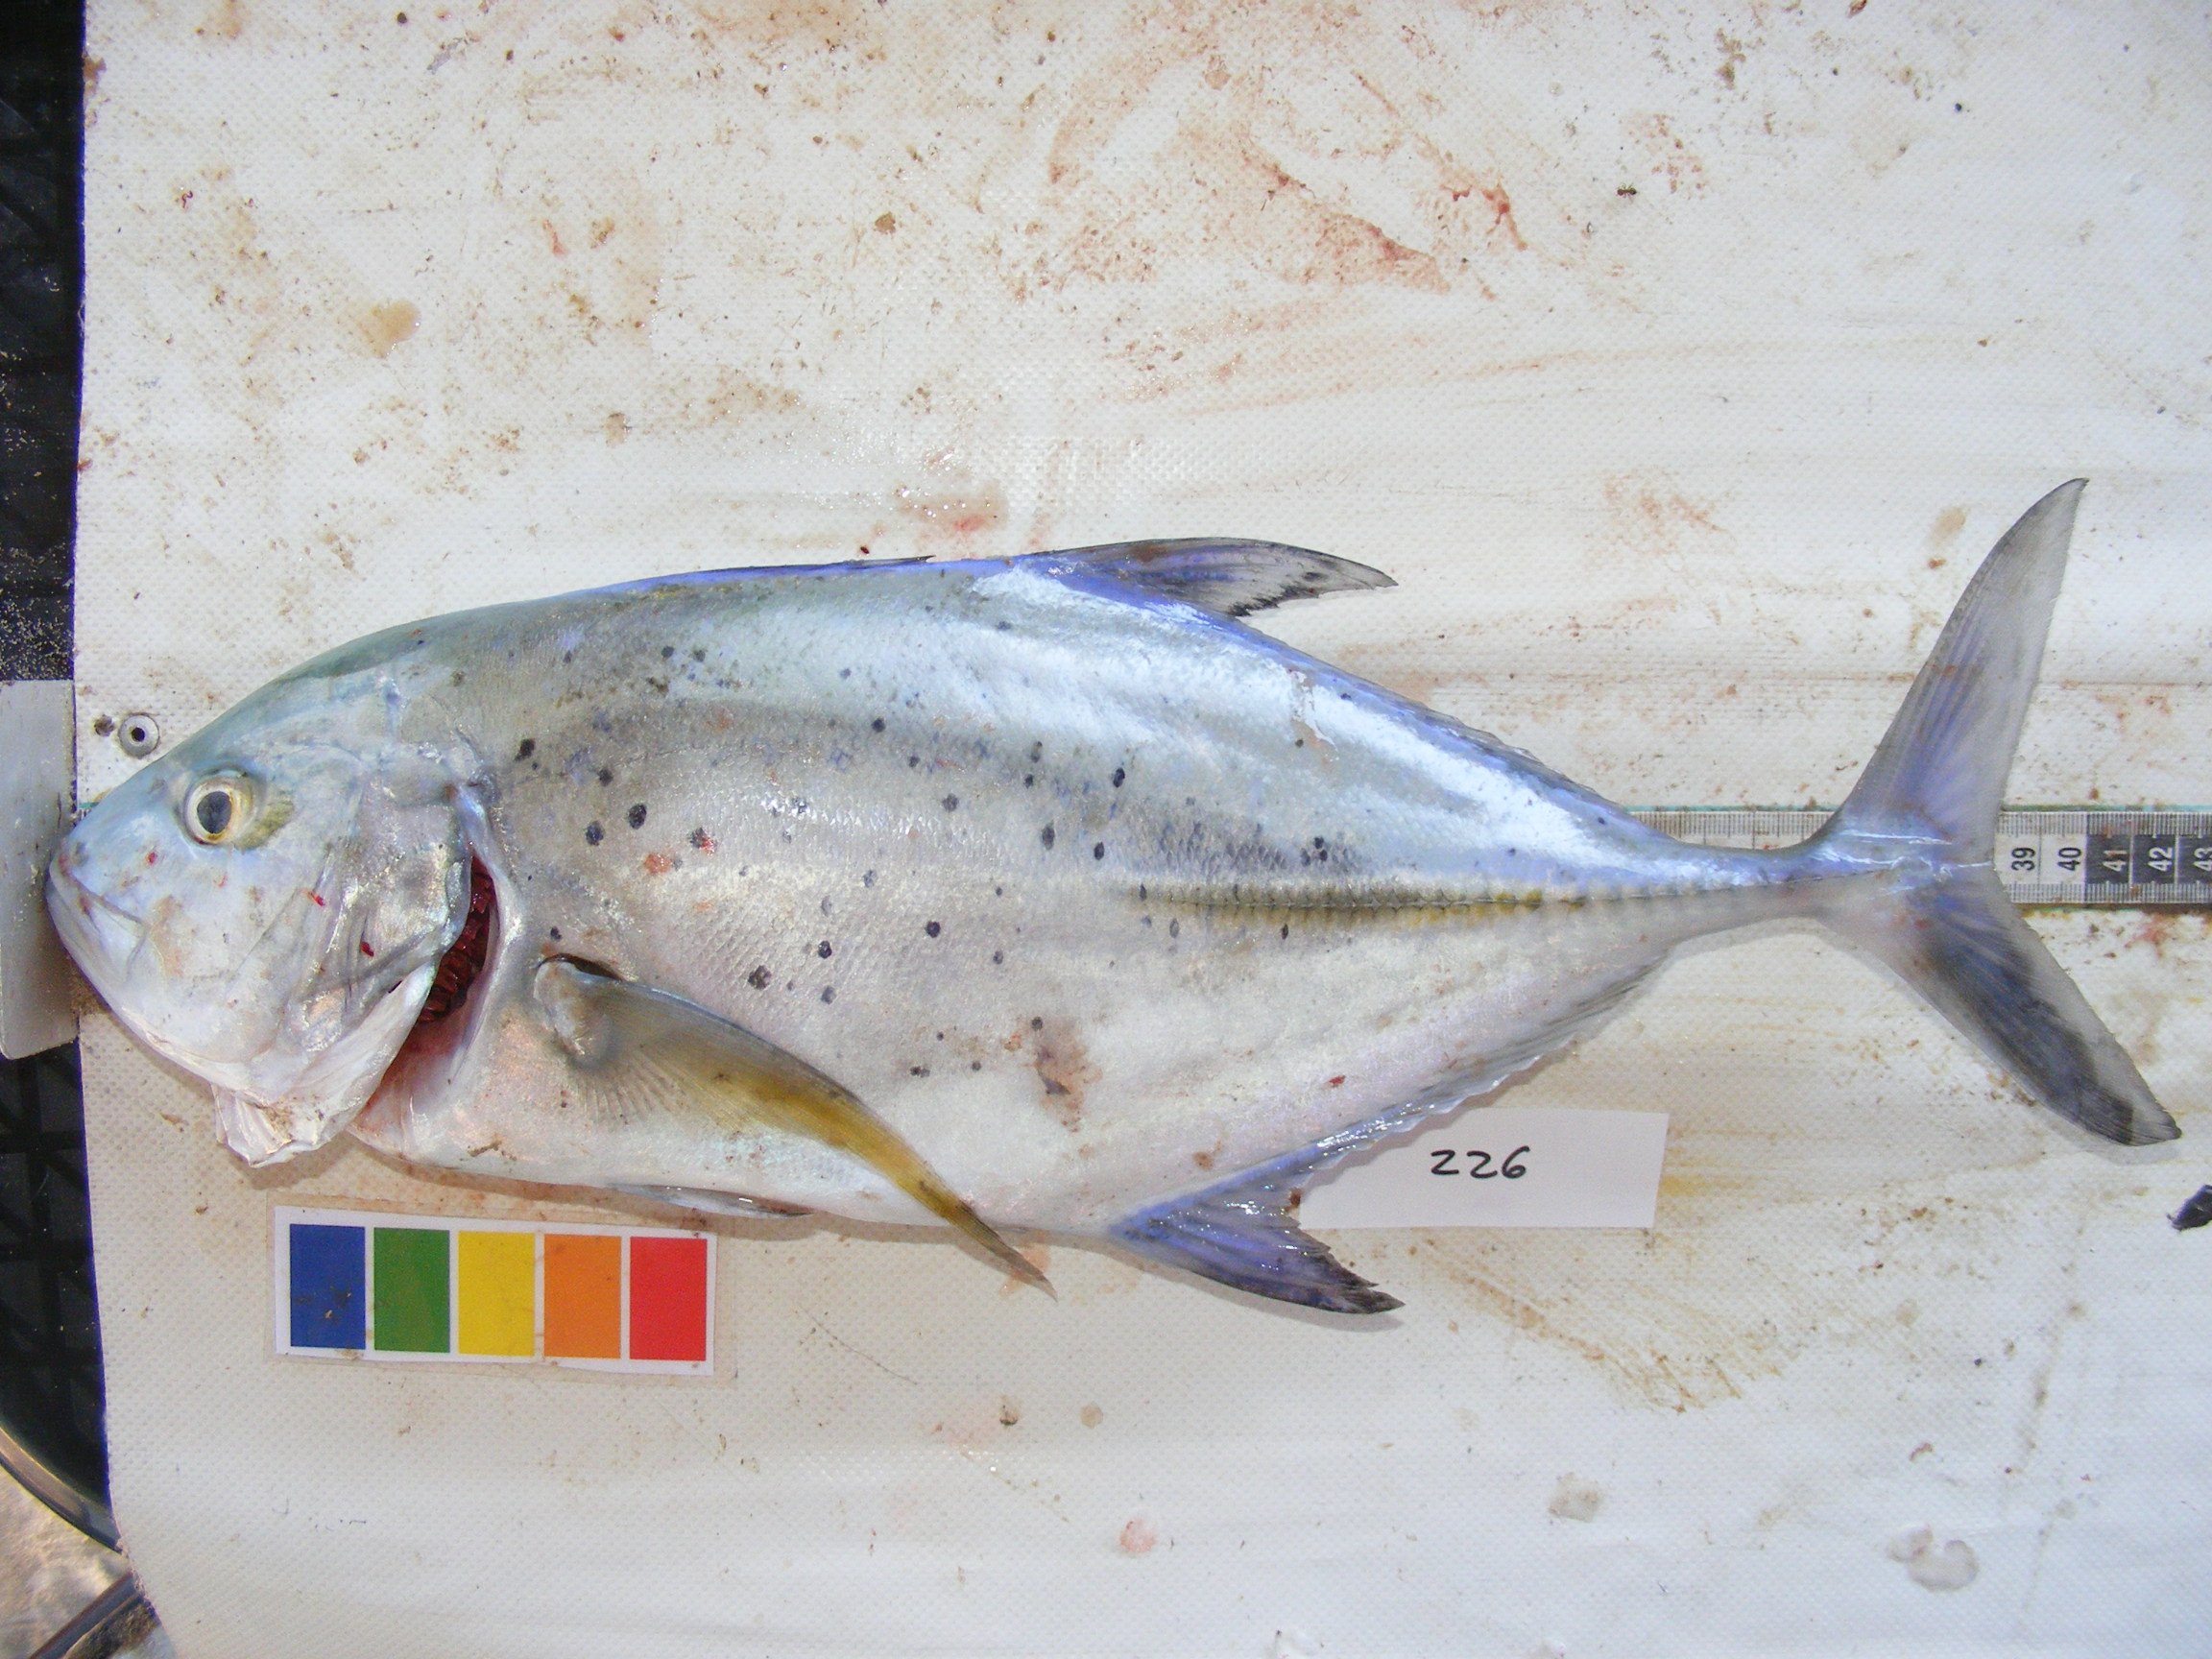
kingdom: Animalia
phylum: Chordata
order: Perciformes
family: Carangidae
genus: Caranx
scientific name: Caranx melampygus
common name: Bluefin trevally
